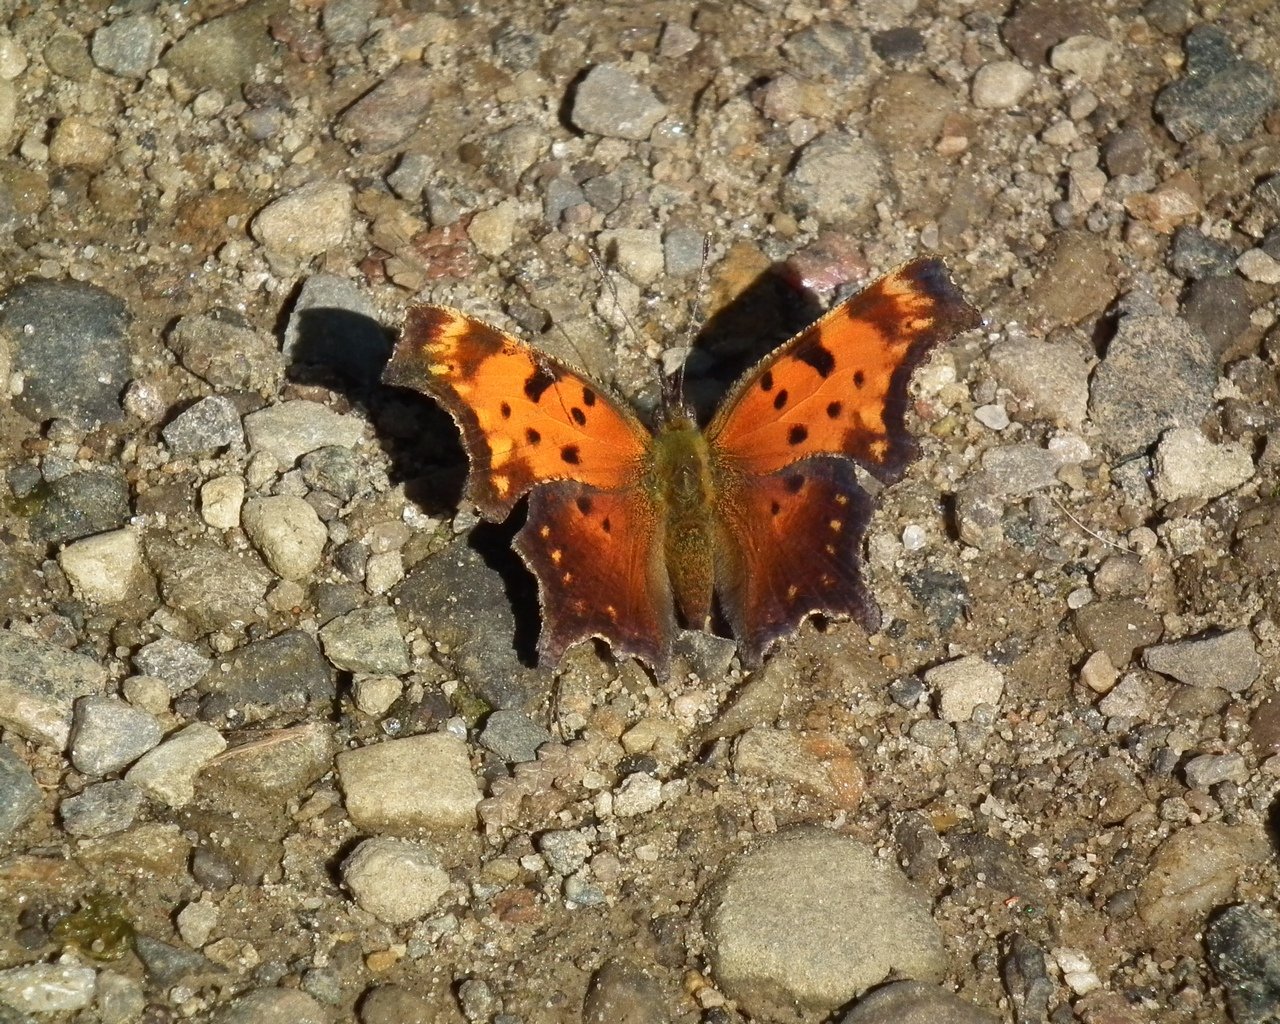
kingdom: Animalia
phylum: Arthropoda
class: Insecta
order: Lepidoptera
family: Nymphalidae
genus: Polygonia
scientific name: Polygonia progne
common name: Gray Comma
